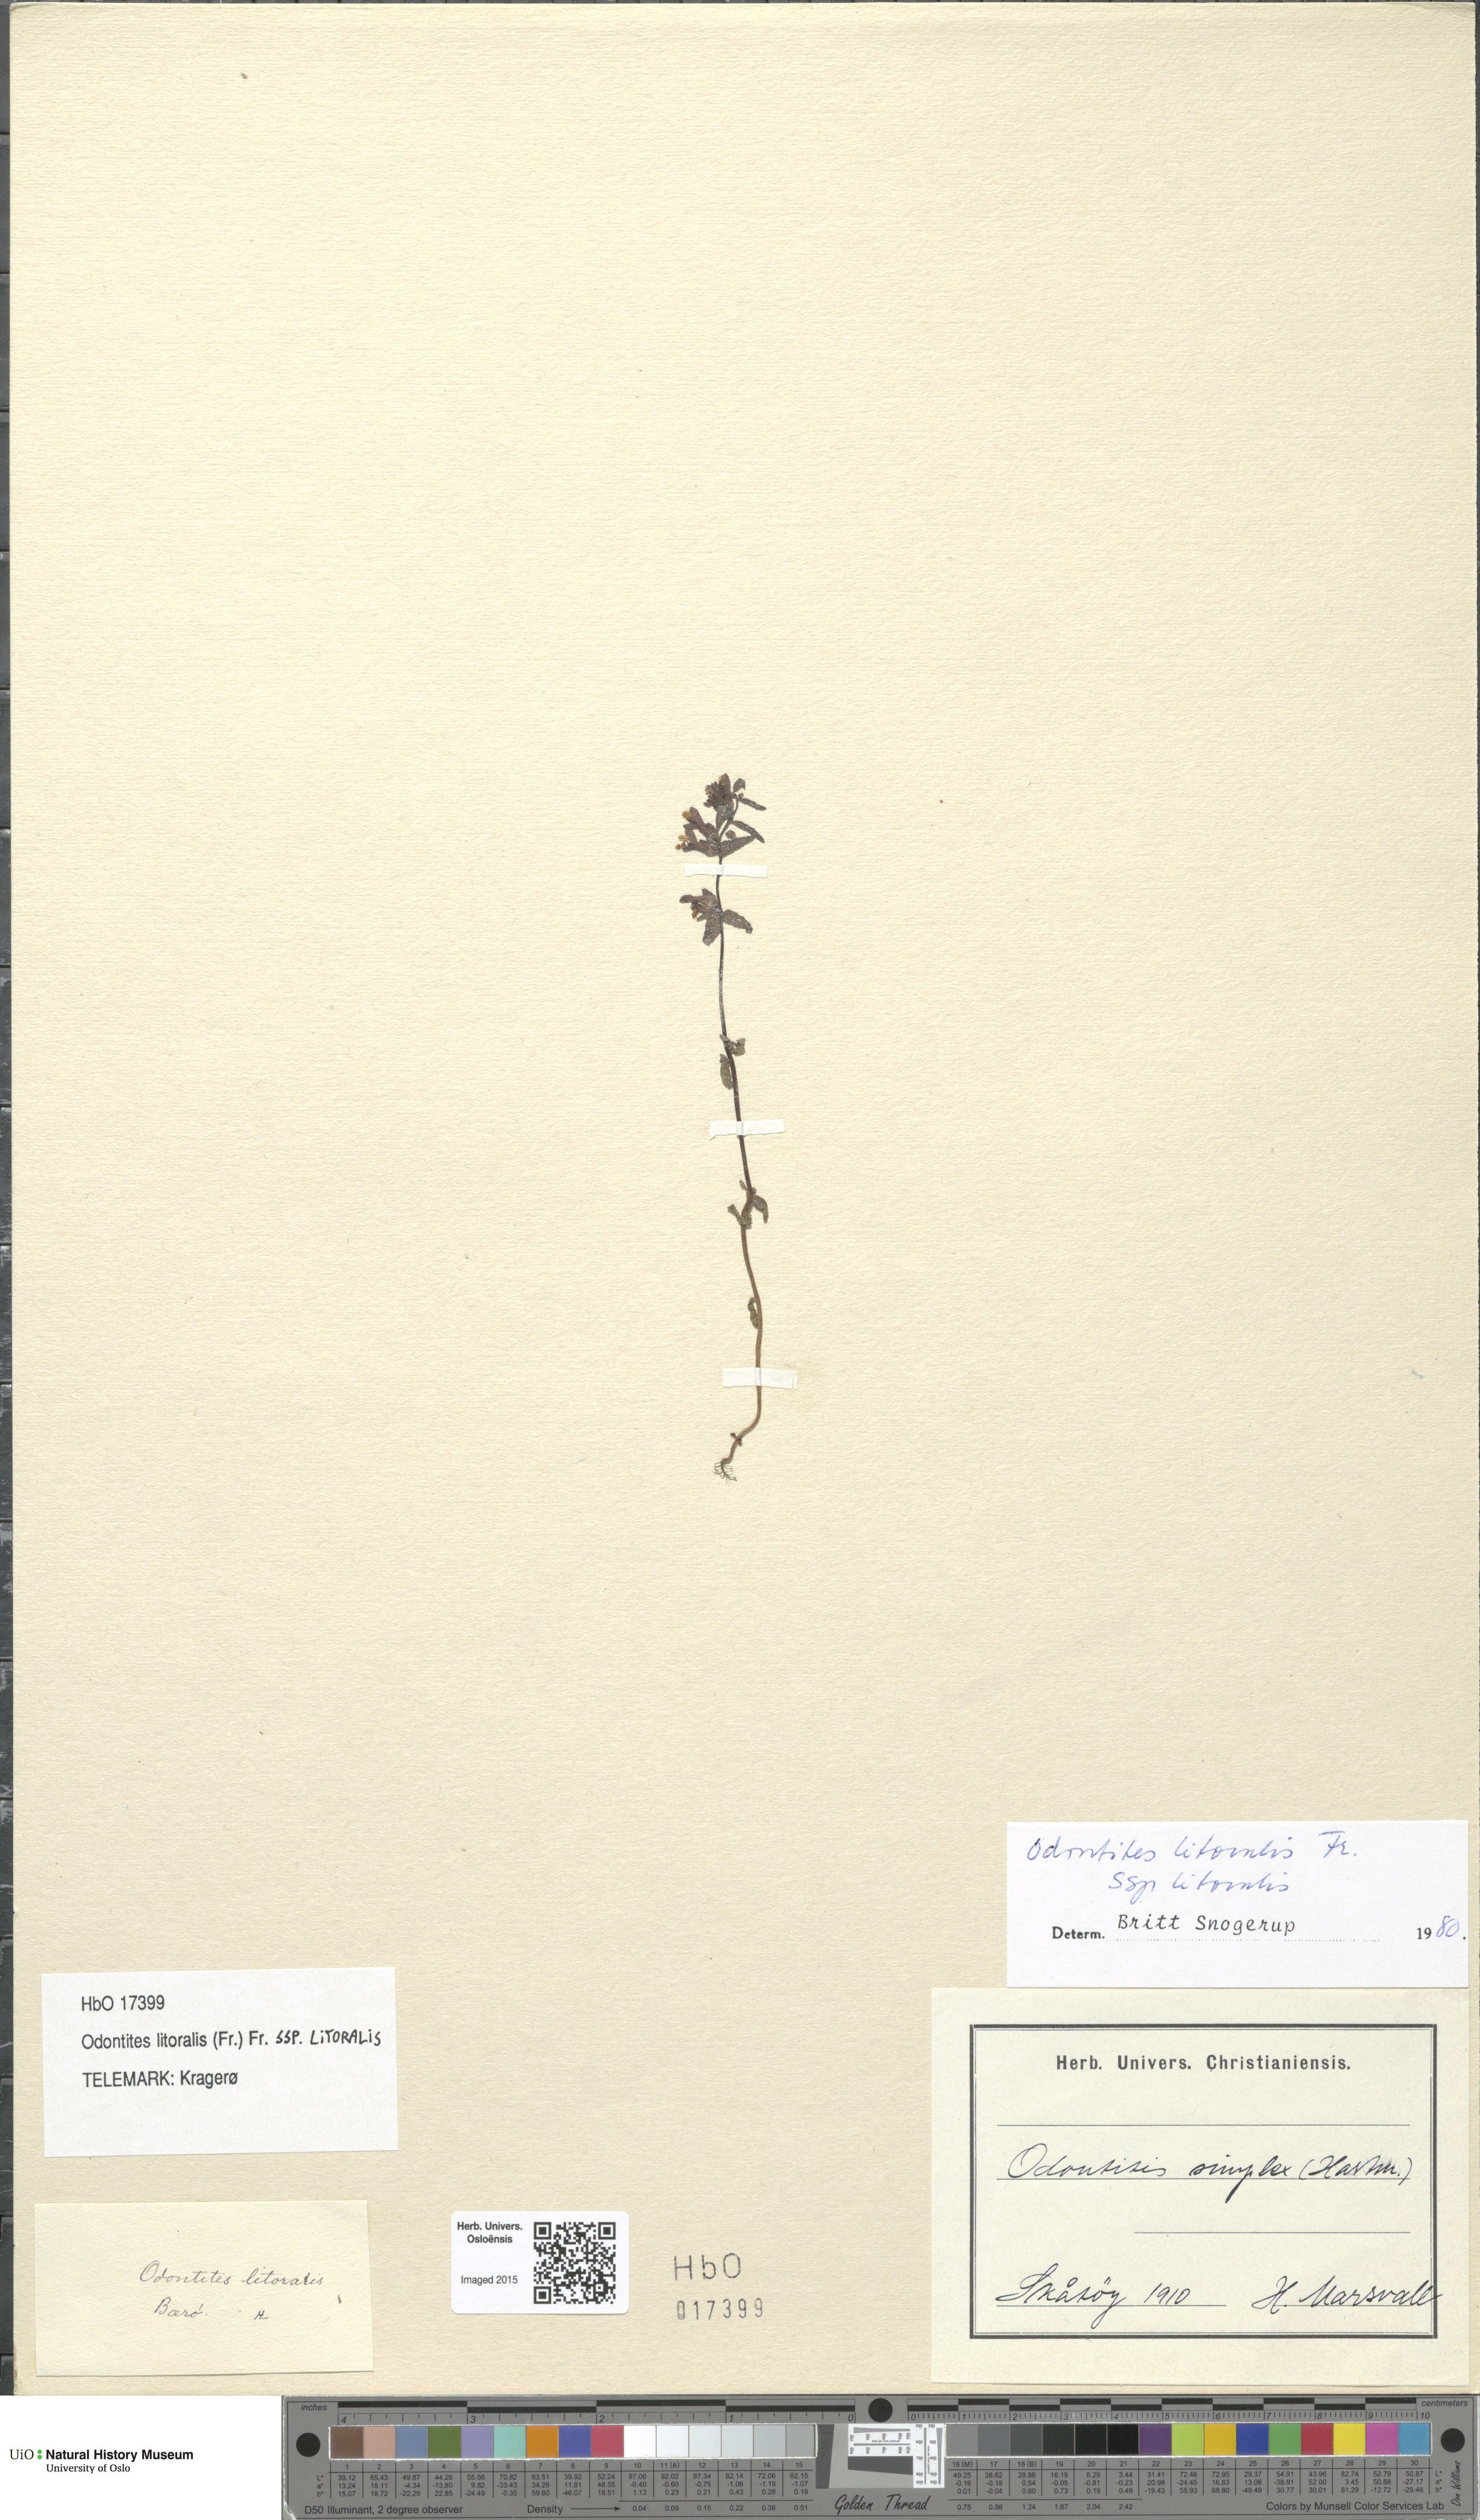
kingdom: Plantae
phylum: Tracheophyta
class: Magnoliopsida
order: Lamiales
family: Orobanchaceae
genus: Odontites
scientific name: Odontites litoralis
